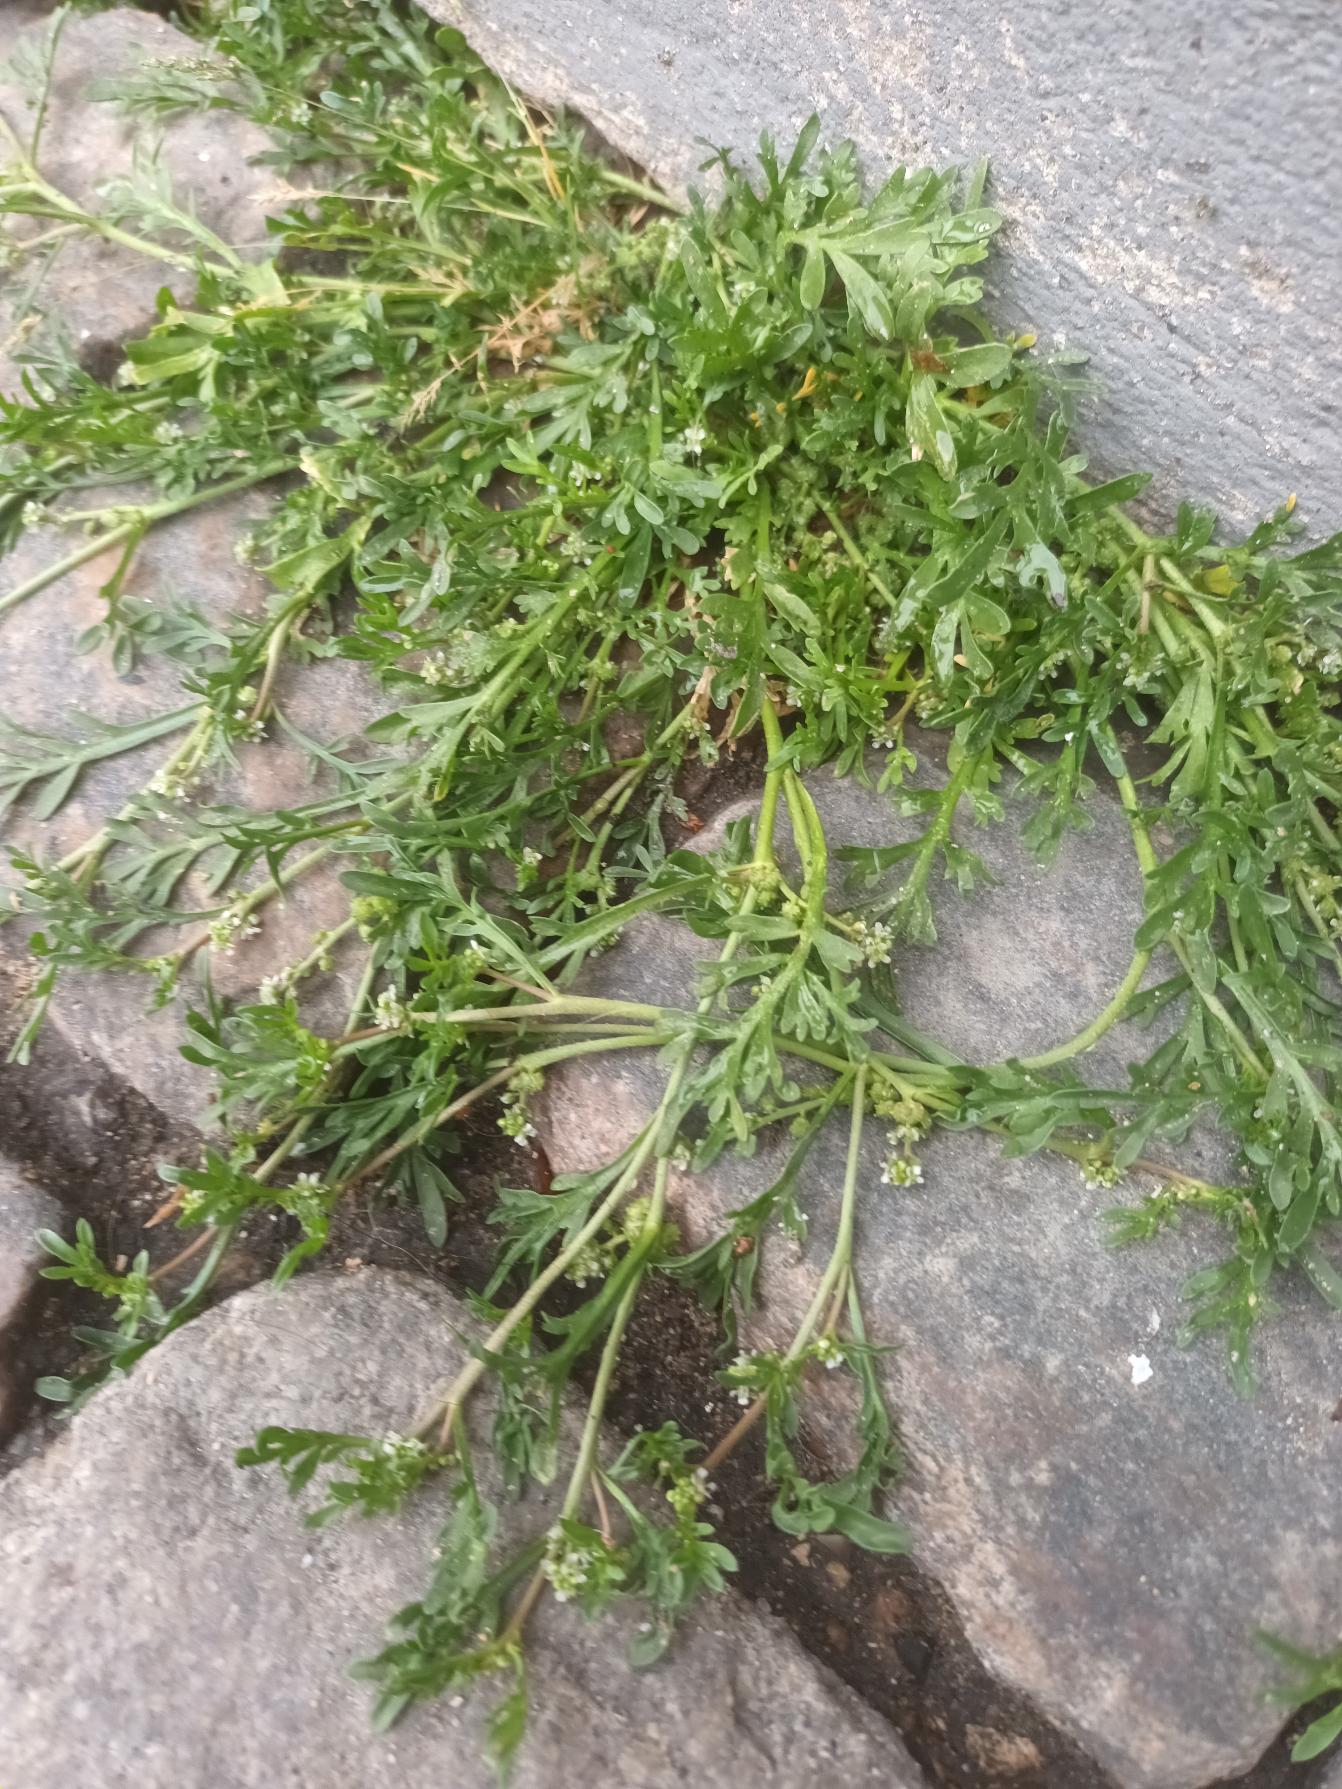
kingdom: Plantae
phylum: Tracheophyta
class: Magnoliopsida
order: Brassicales
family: Brassicaceae
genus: Lepidium
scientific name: Lepidium coronopus
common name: Ravnefod
